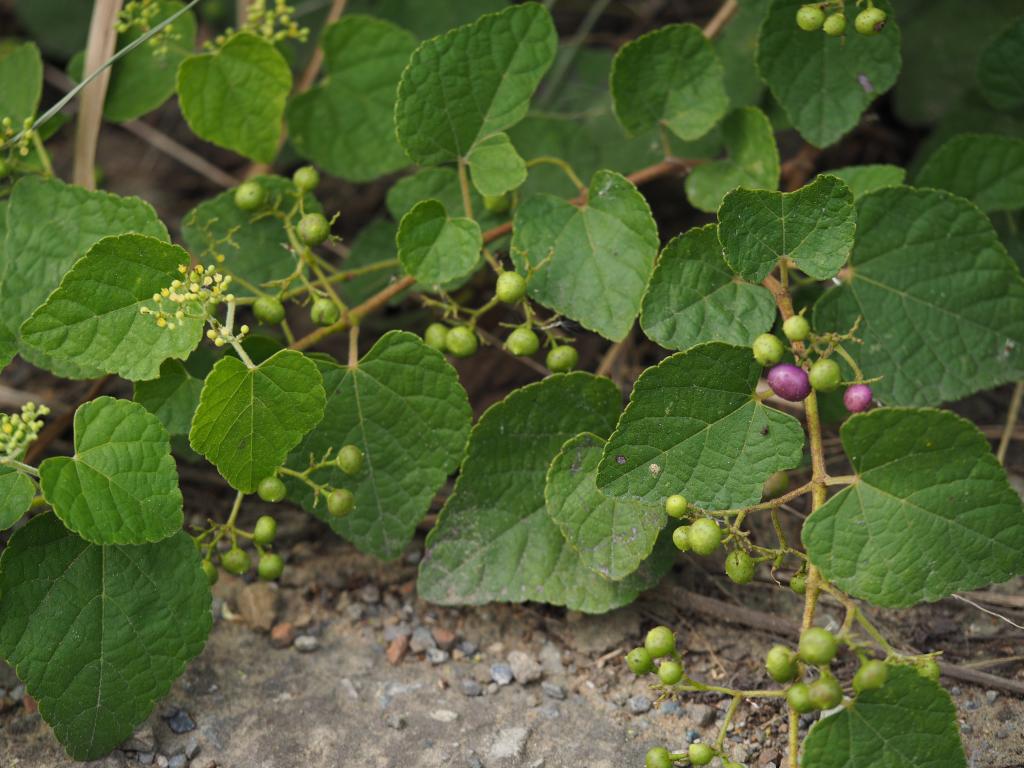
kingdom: Plantae
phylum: Tracheophyta
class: Magnoliopsida
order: Vitales
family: Vitaceae
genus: Ampelopsis
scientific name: Ampelopsis glandulosa
